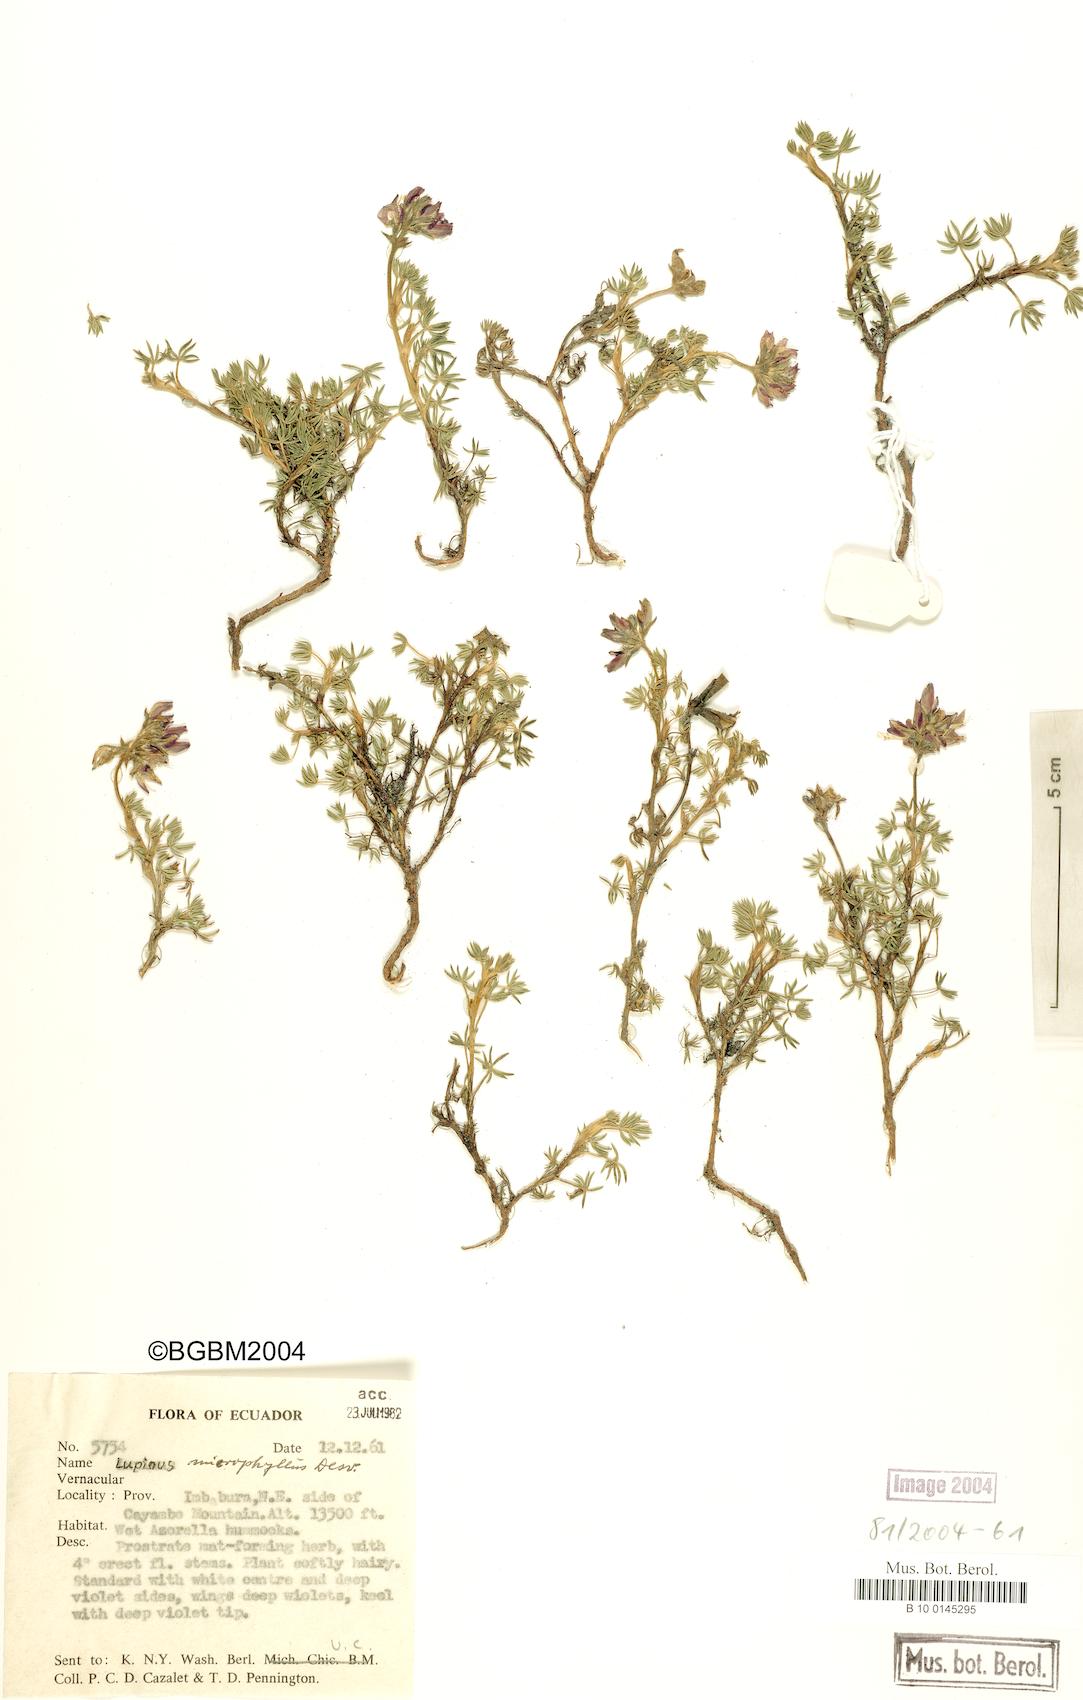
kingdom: Plantae
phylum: Tracheophyta
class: Magnoliopsida
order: Fabales
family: Fabaceae
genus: Lupinus
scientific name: Lupinus microphyllus
